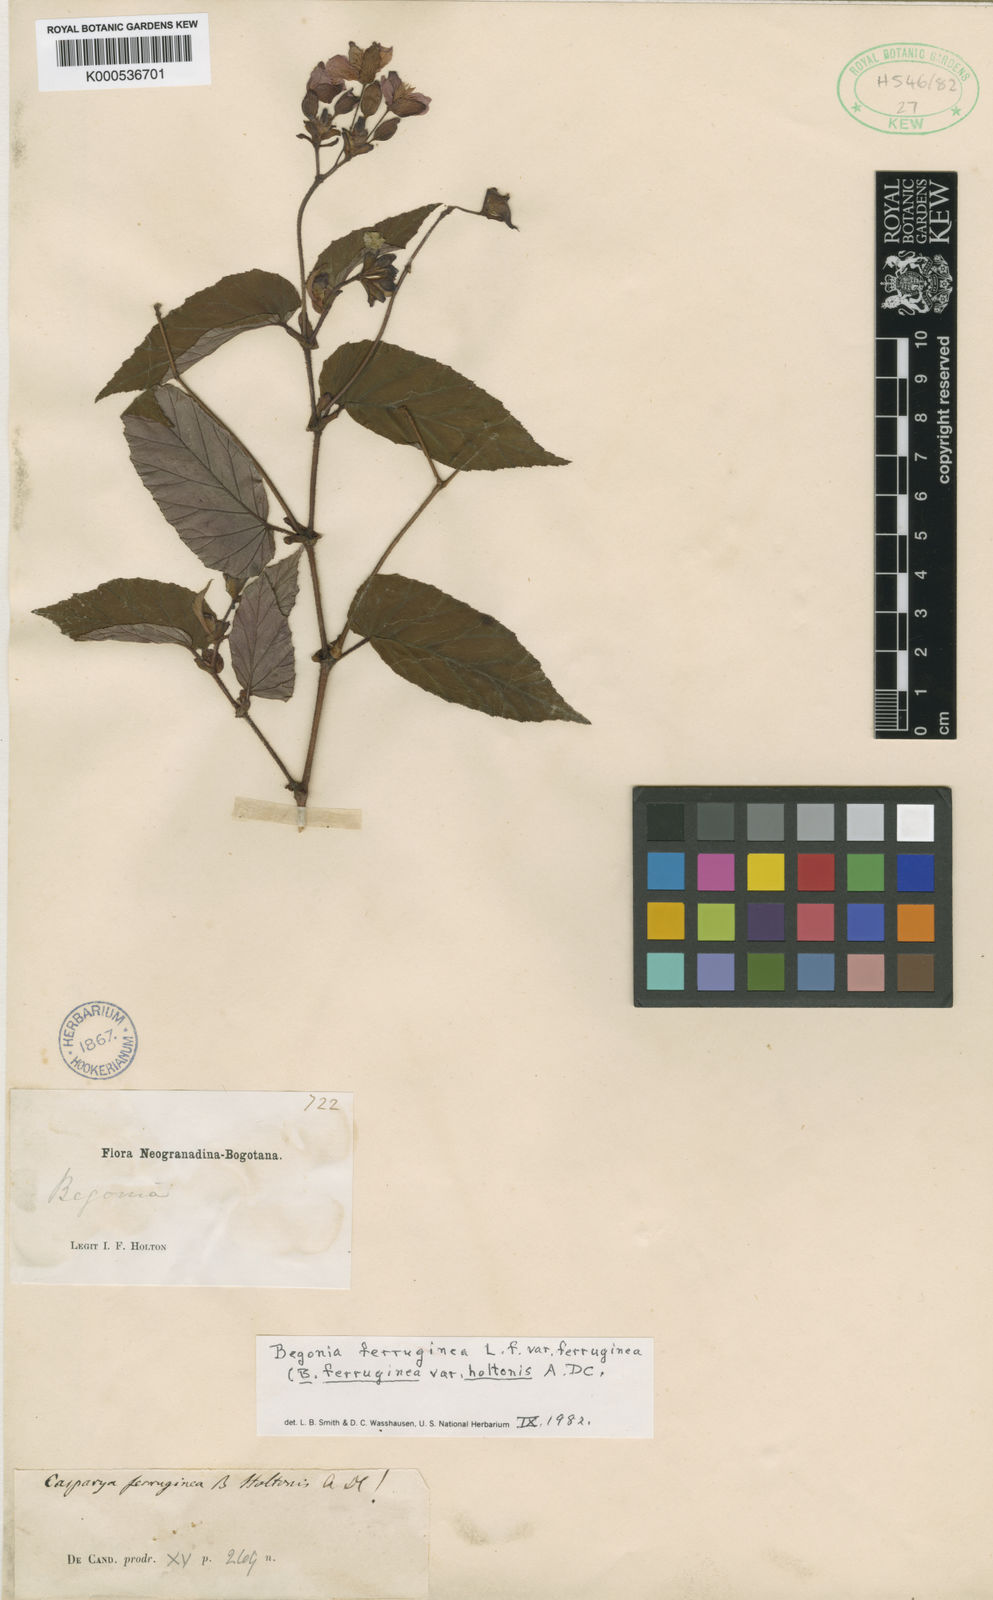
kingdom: Plantae
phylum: Tracheophyta
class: Magnoliopsida
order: Cucurbitales
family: Begoniaceae
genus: Begonia
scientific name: Begonia ferruginea
